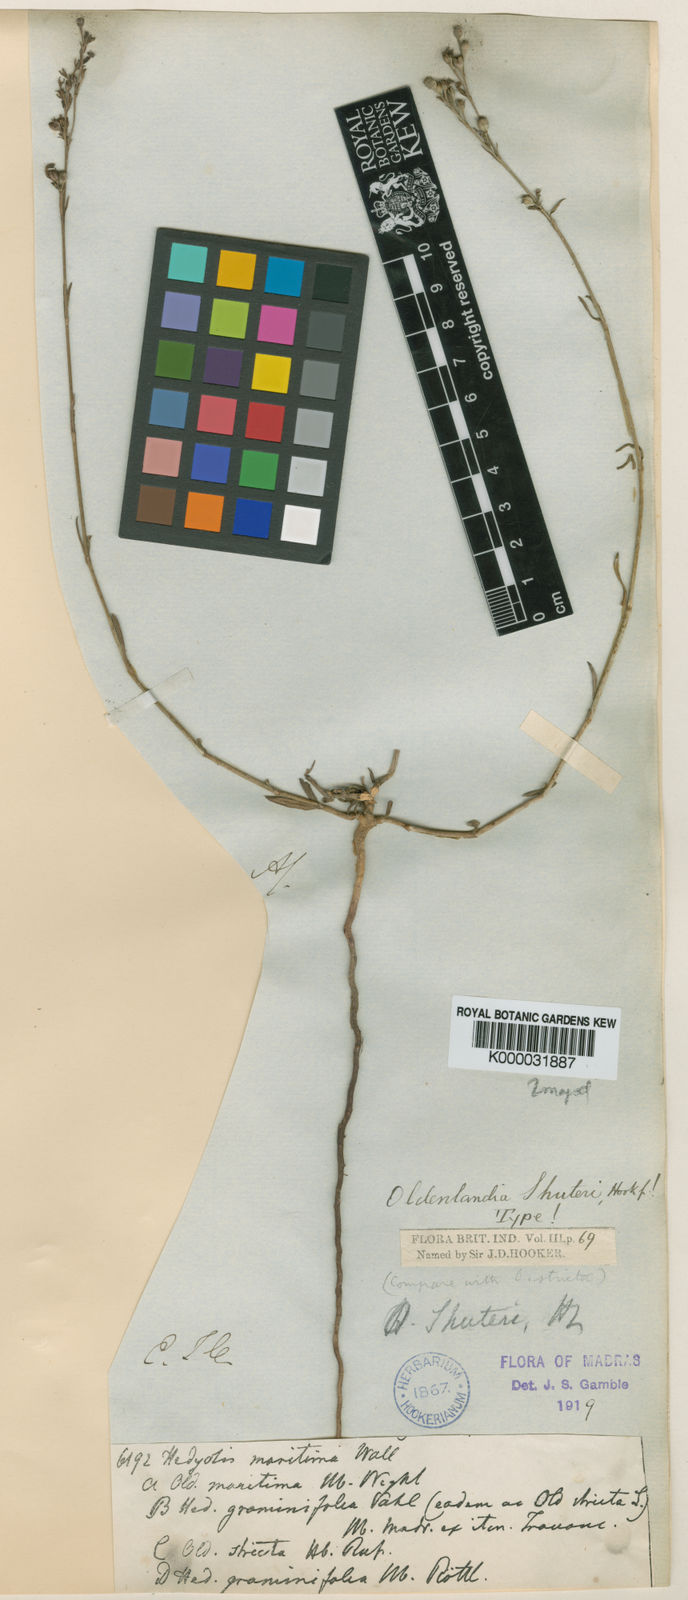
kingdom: Plantae
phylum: Tracheophyta
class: Magnoliopsida
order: Gentianales
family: Rubiaceae
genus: Kohautia
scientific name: Kohautia
